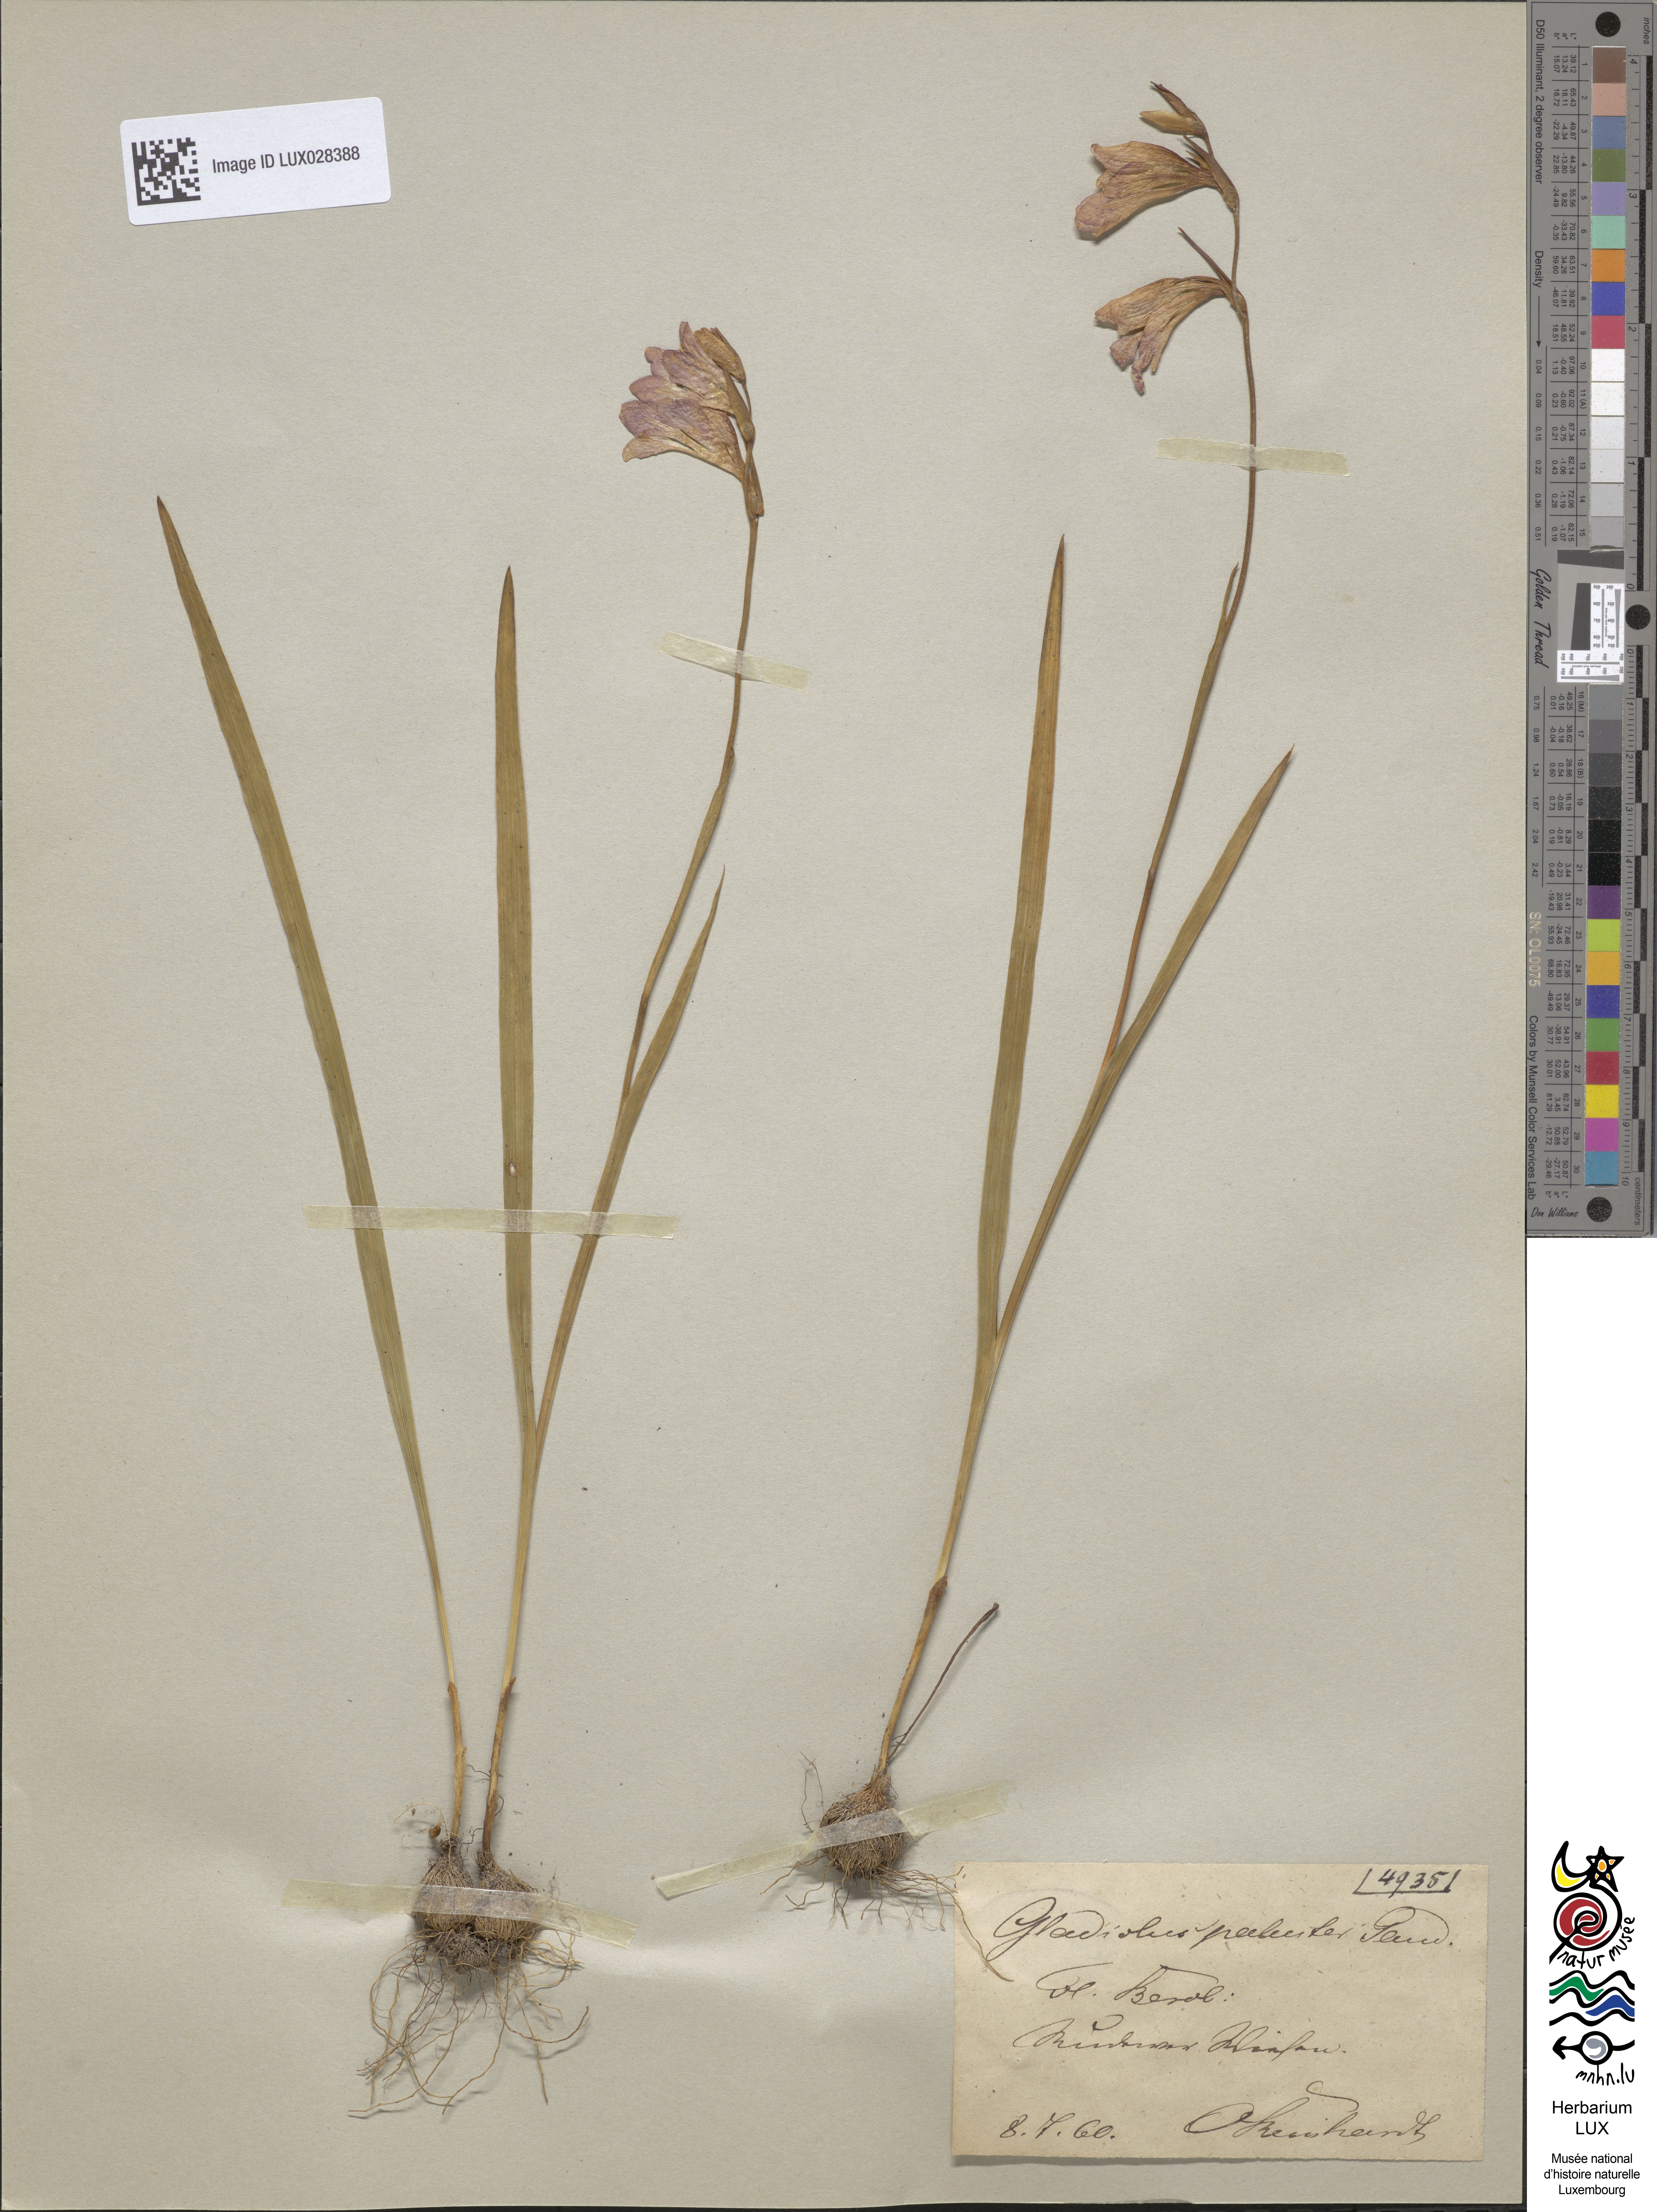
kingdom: Plantae
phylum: Tracheophyta
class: Liliopsida
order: Asparagales
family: Iridaceae
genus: Gladiolus
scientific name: Gladiolus palustris
